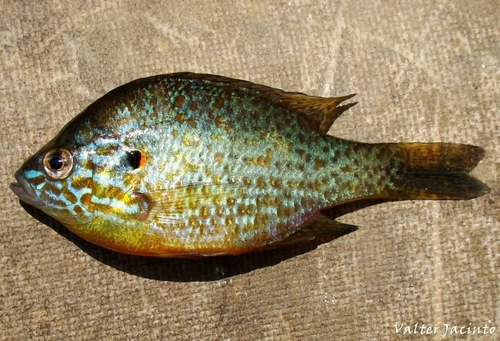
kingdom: Animalia
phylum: Chordata
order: Perciformes
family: Centrarchidae
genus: Lepomis
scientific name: Lepomis gibbosus
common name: Pumpkinseed
